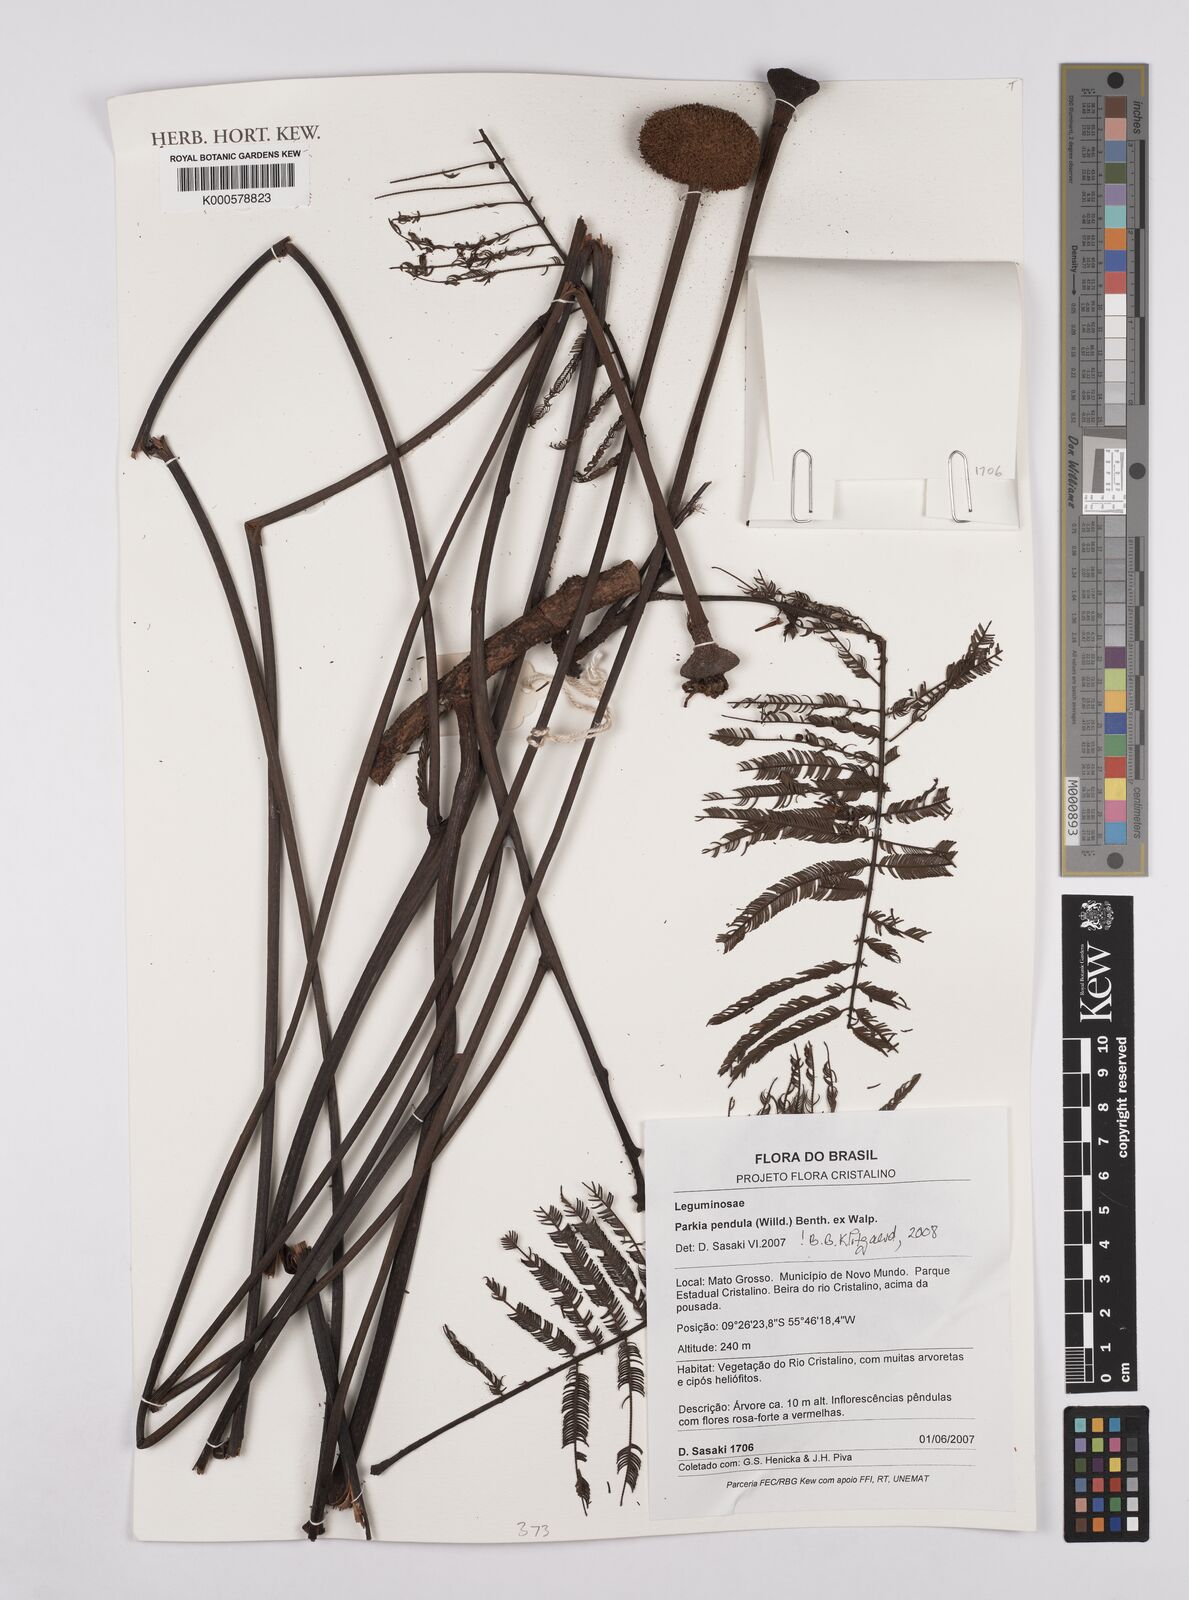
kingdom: Plantae
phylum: Tracheophyta
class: Magnoliopsida
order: Fabales
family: Fabaceae
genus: Parkia
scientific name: Parkia pendula
